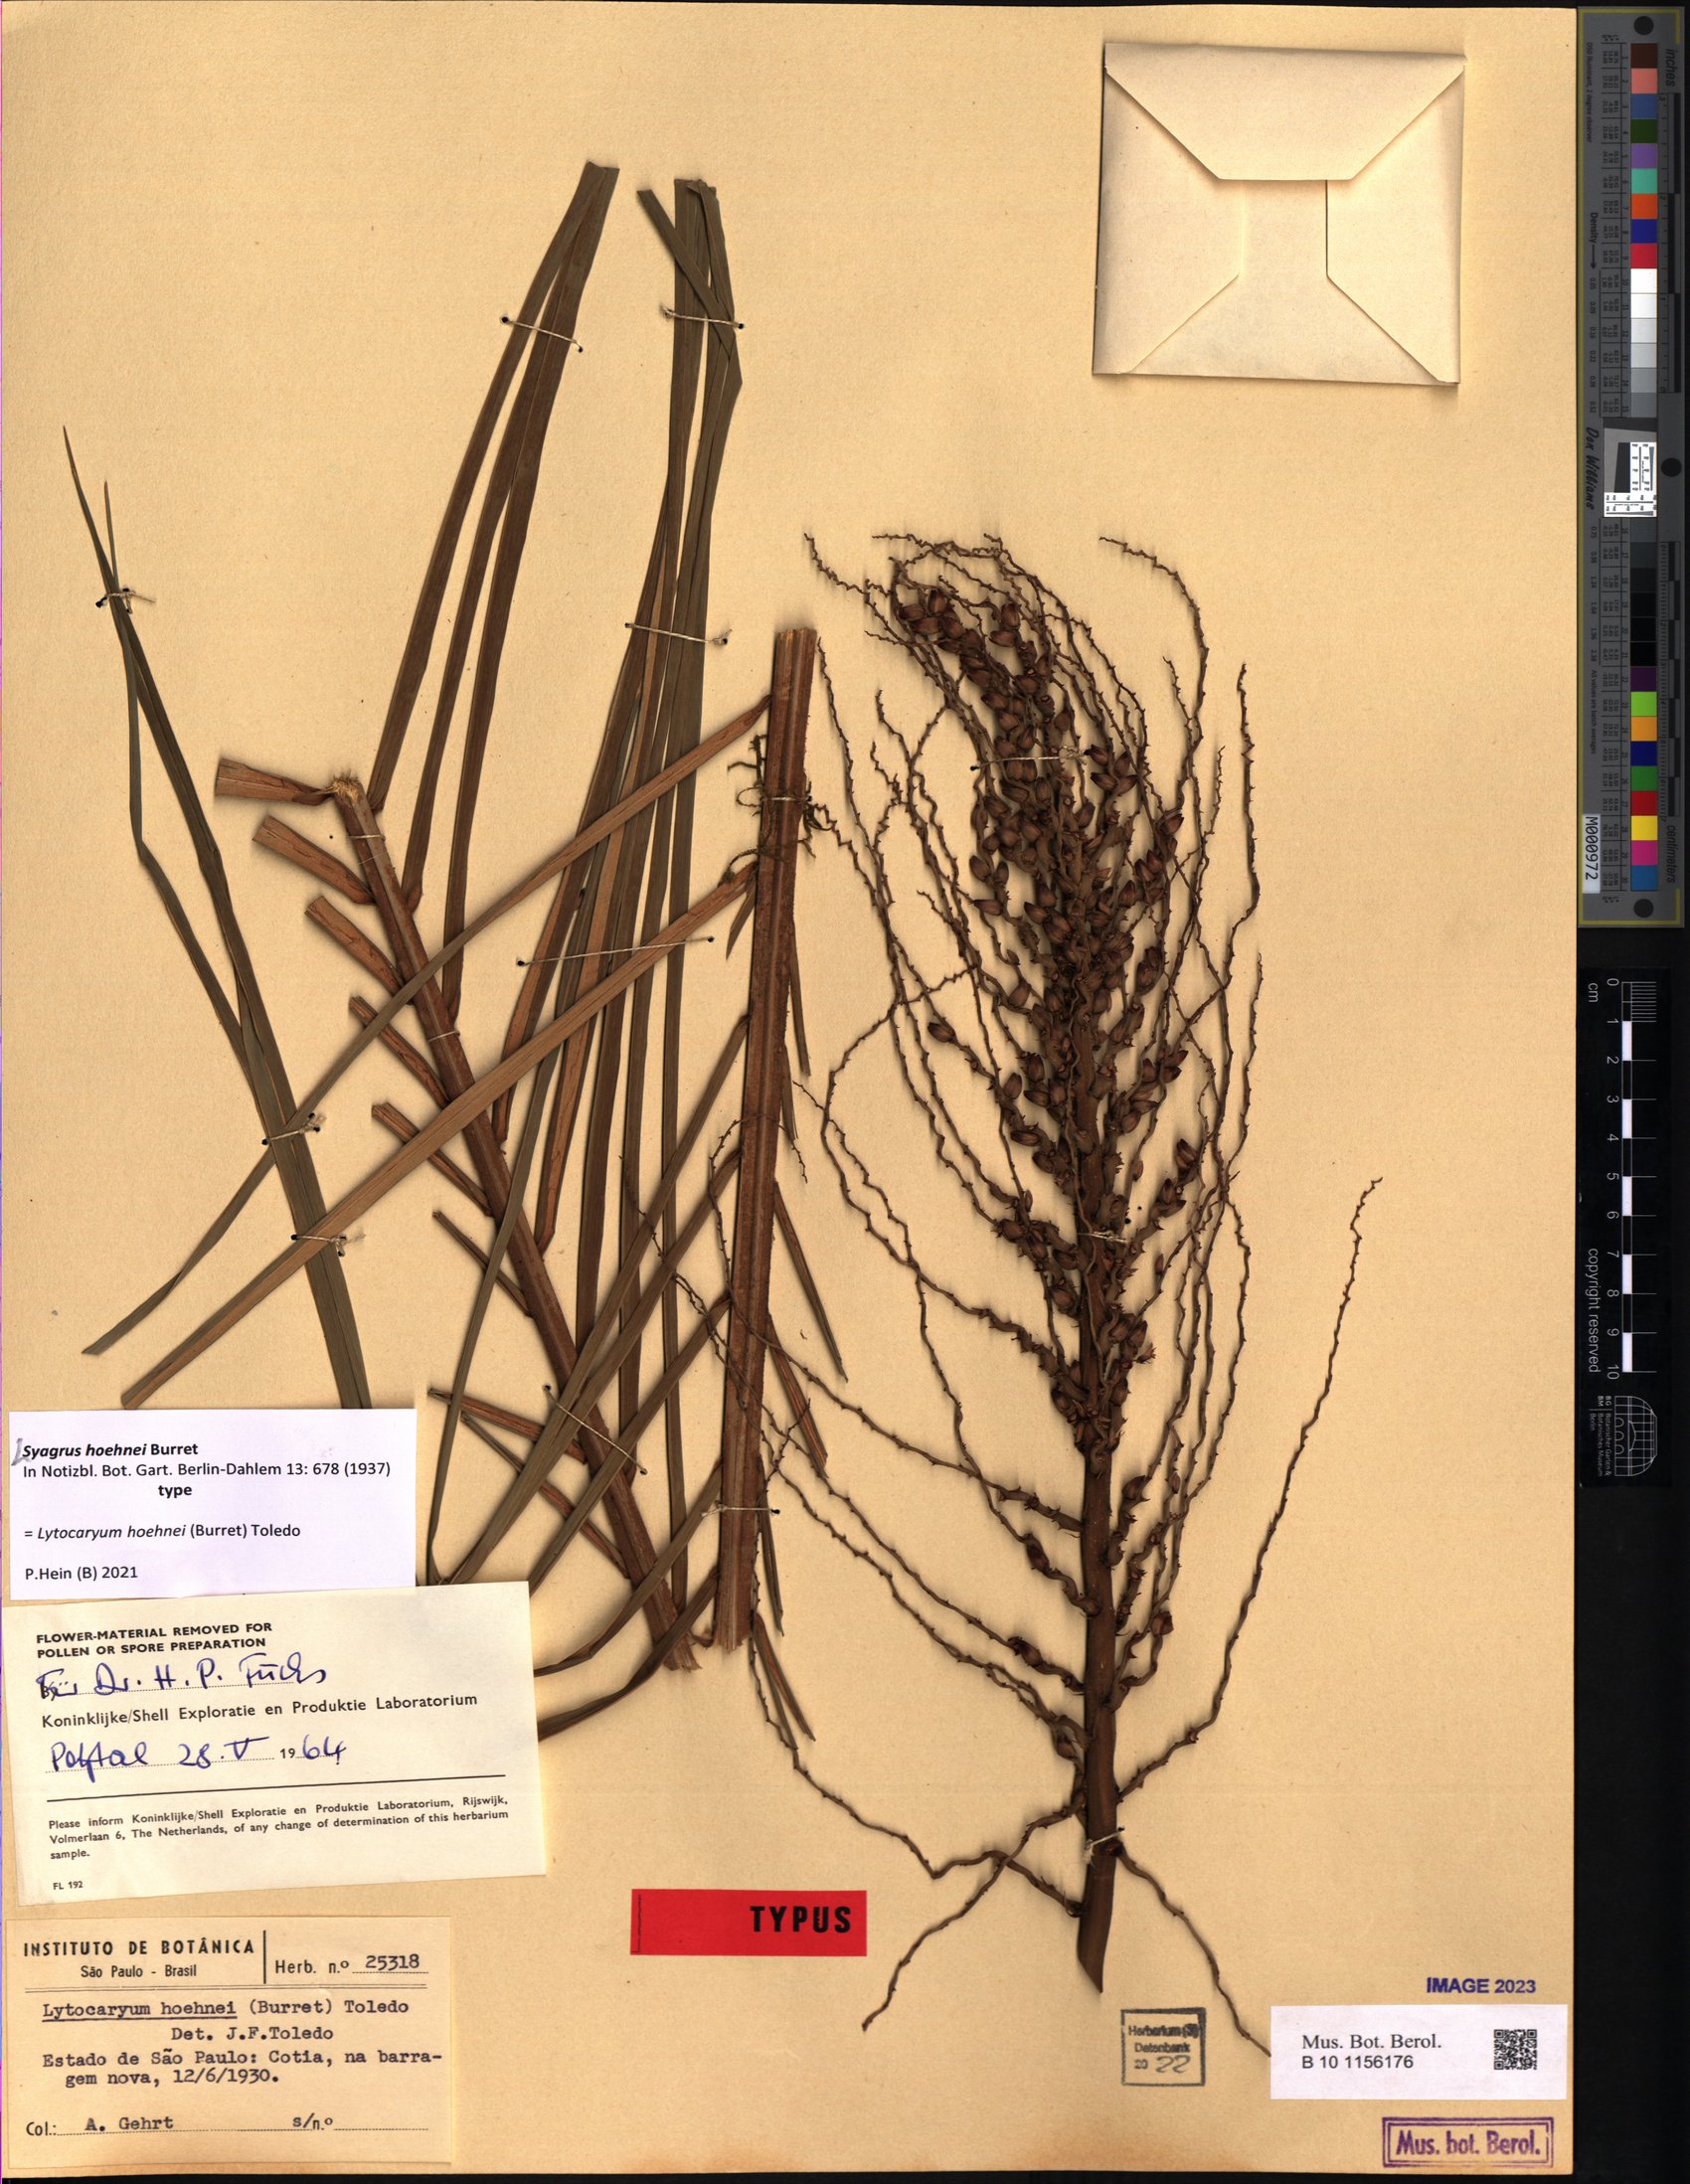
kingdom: Plantae
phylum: Tracheophyta
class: Liliopsida
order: Arecales
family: Arecaceae
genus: Syagrus
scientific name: Syagrus hoehnei
